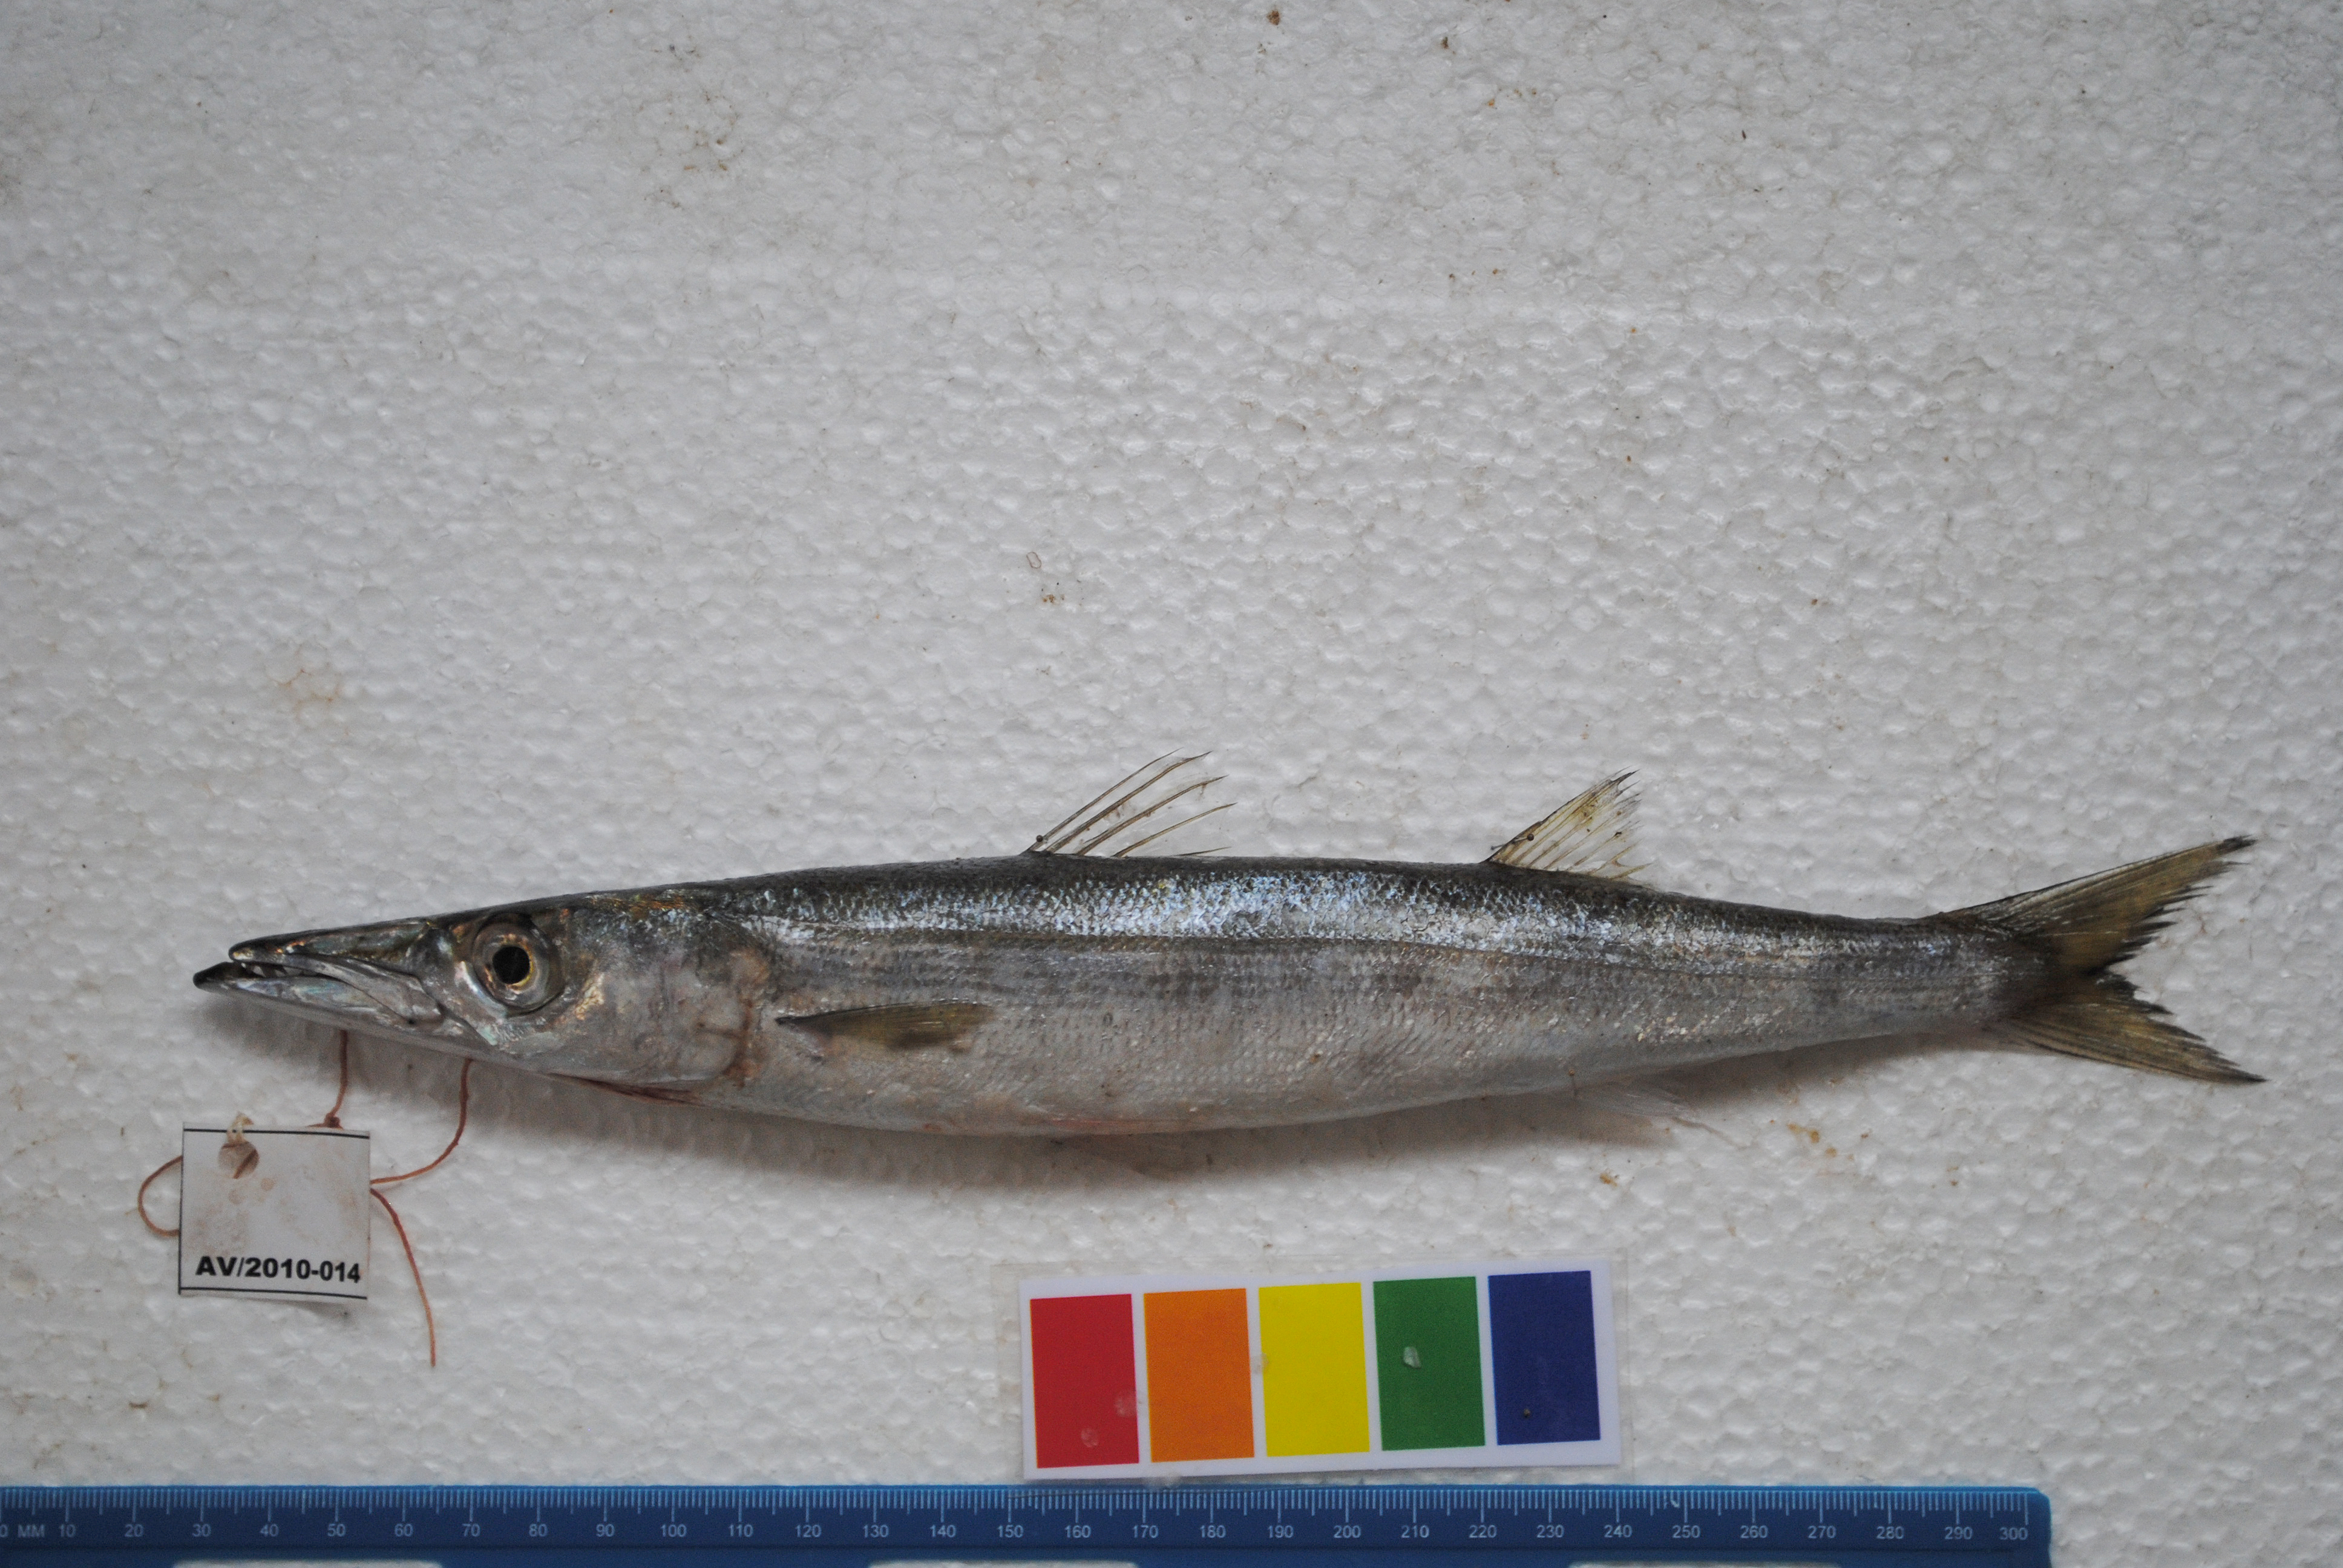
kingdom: Animalia
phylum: Chordata
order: Perciformes
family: Sphyraenidae
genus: Sphyraena
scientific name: Sphyraena
